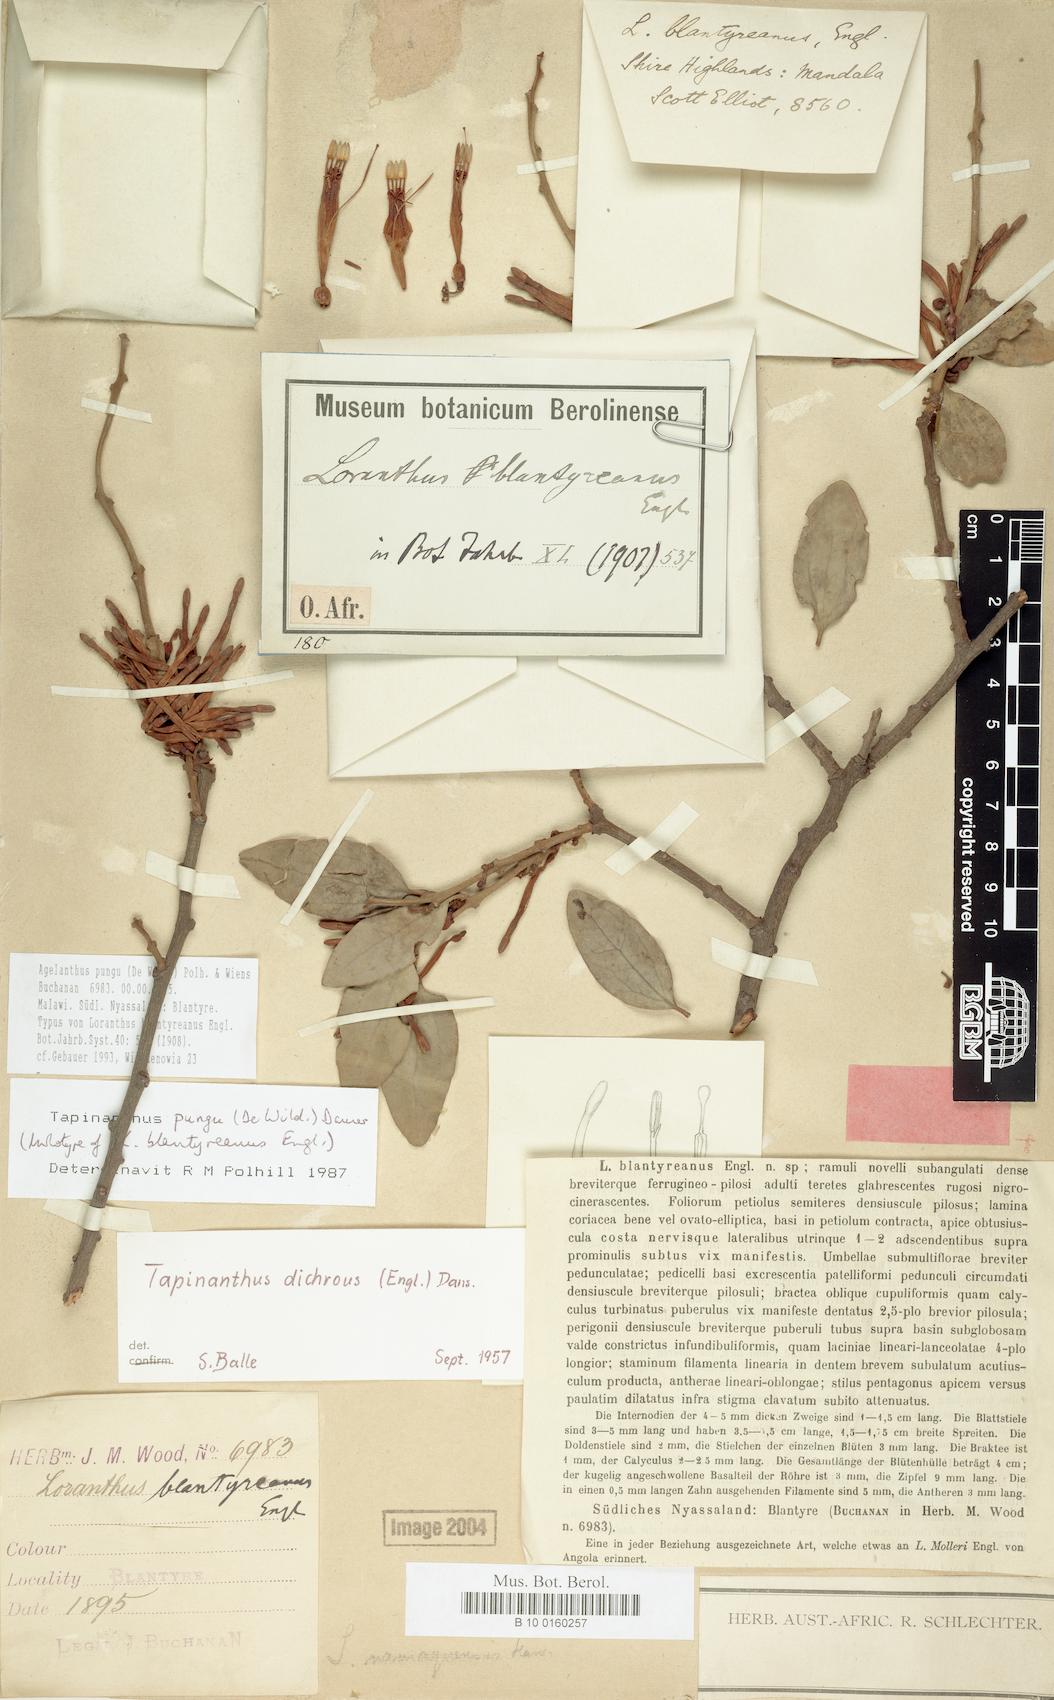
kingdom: Plantae
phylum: Tracheophyta
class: Magnoliopsida
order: Santalales
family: Loranthaceae
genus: Agelanthus
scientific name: Agelanthus pungu
